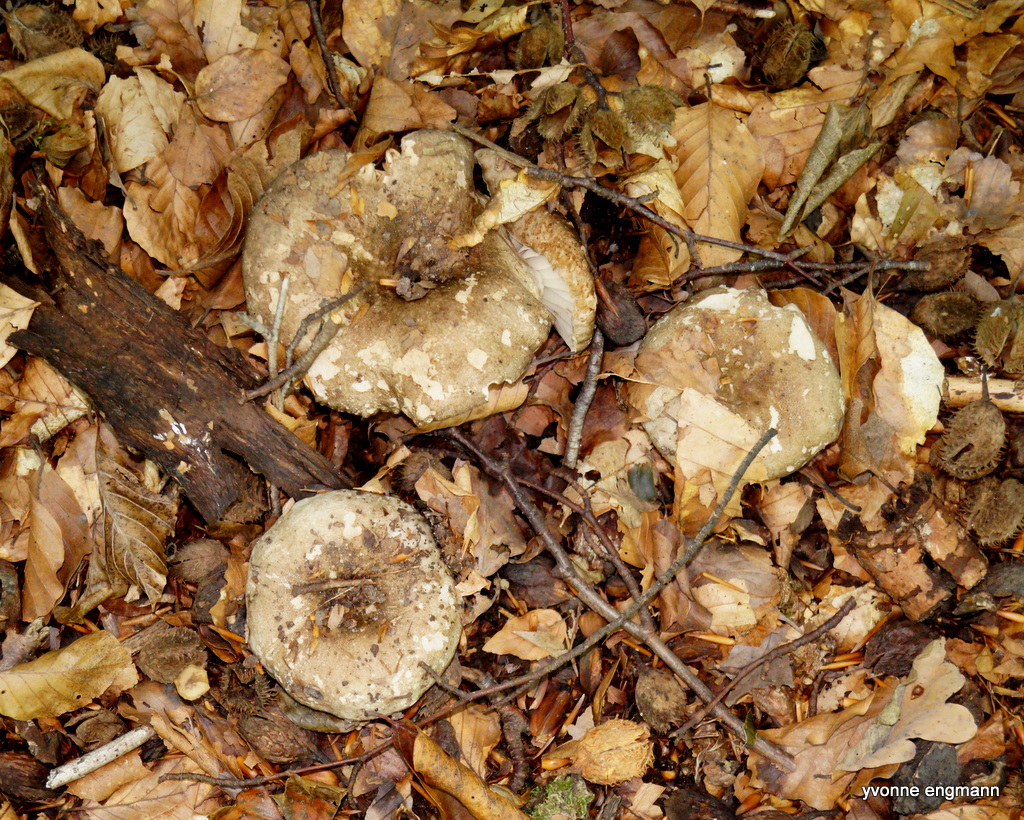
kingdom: Fungi
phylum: Basidiomycota
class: Agaricomycetes
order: Russulales
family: Russulaceae
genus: Russula
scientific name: Russula adusta
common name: sværtende skørhat
